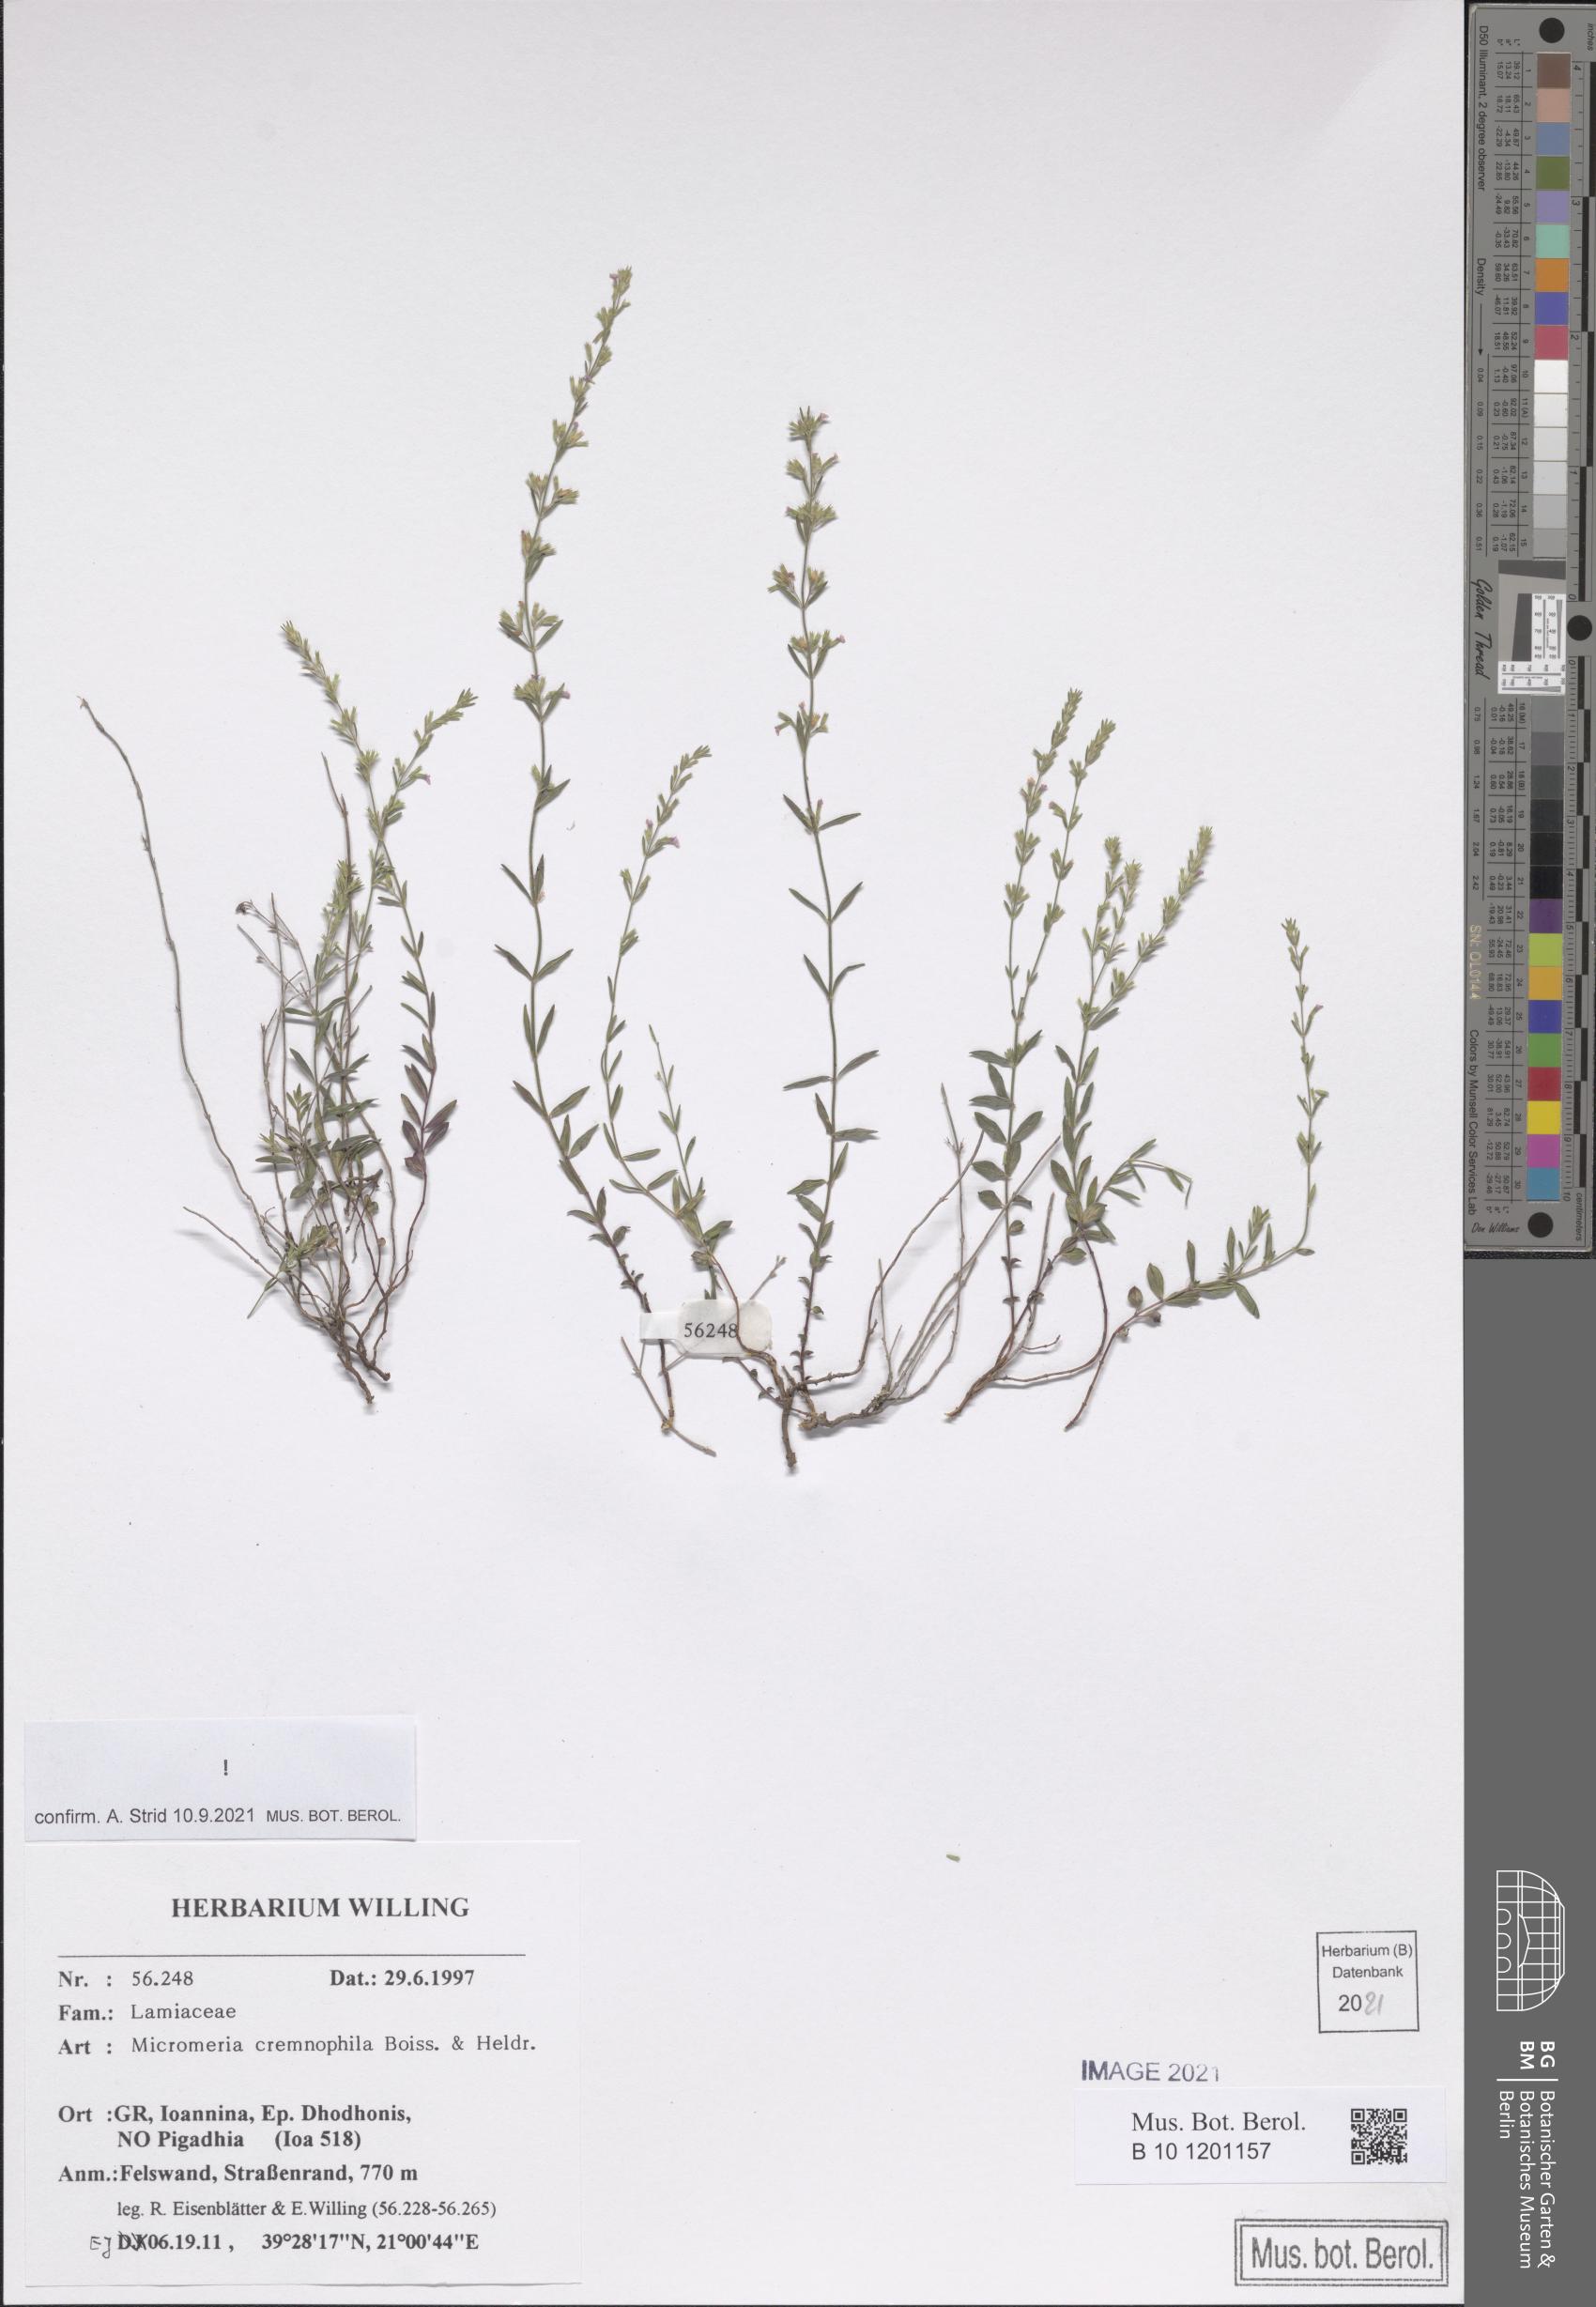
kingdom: Plantae
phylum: Tracheophyta
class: Magnoliopsida
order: Lamiales
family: Lamiaceae
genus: Micromeria
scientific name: Micromeria cremnophila
